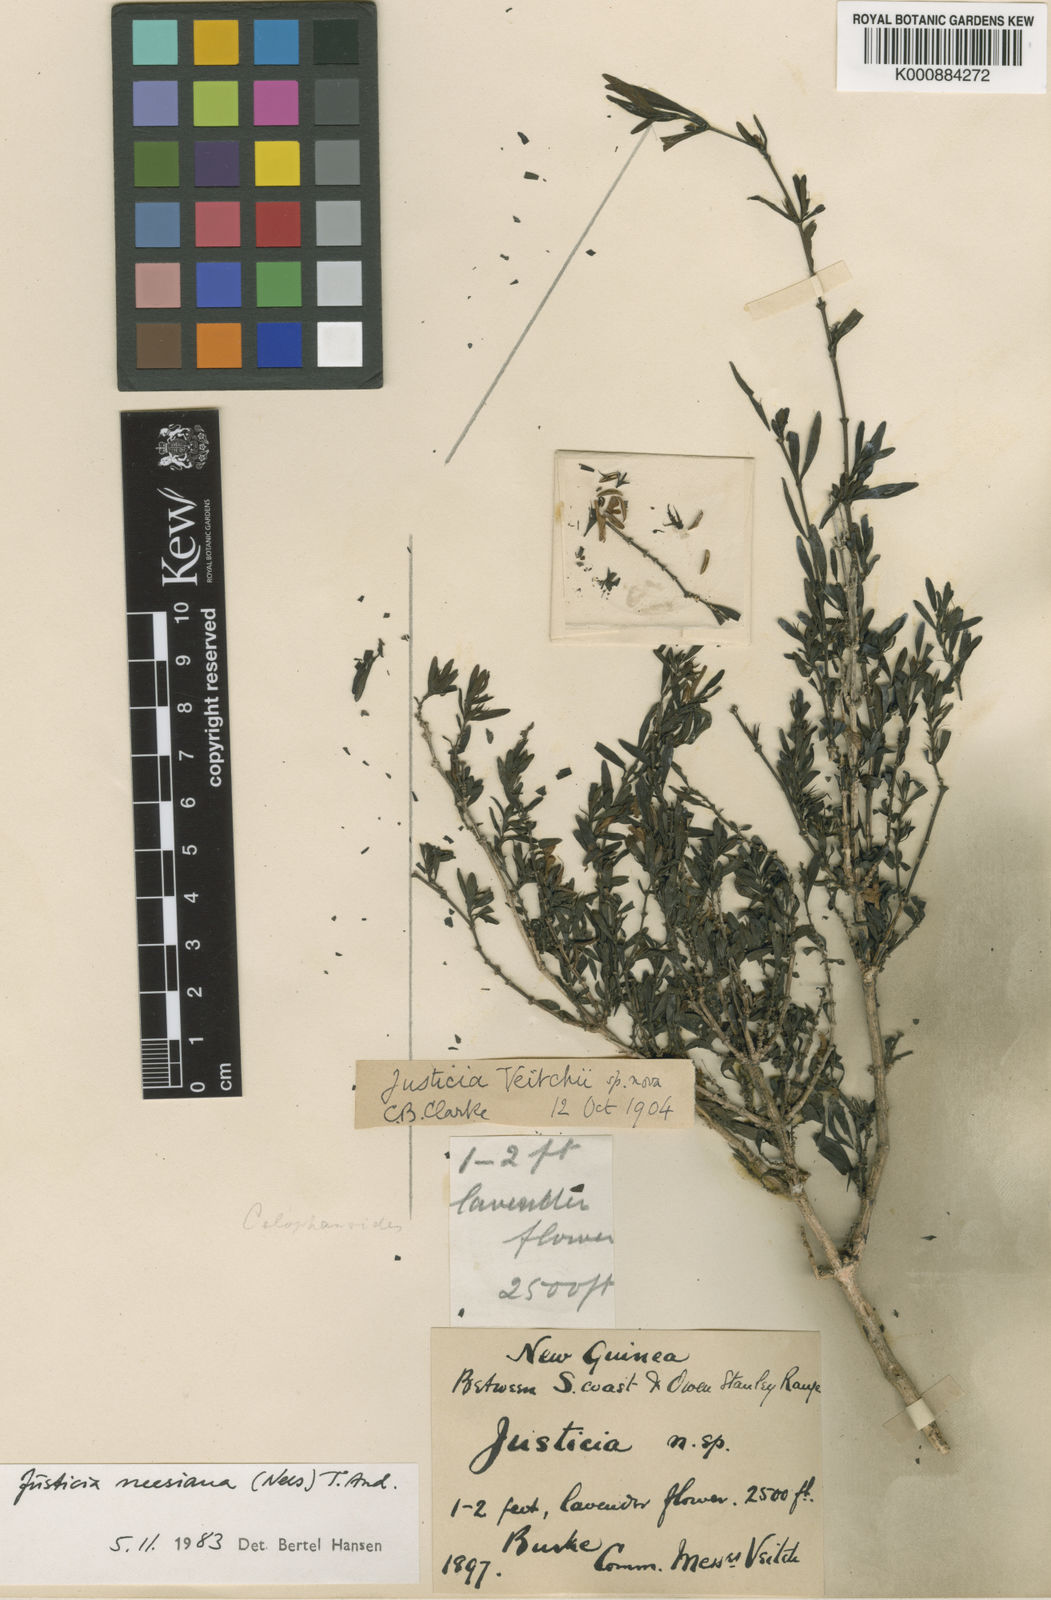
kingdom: Plantae
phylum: Tracheophyta
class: Magnoliopsida
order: Lamiales
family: Acanthaceae
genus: Harpochilus
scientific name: Harpochilus neesianus
